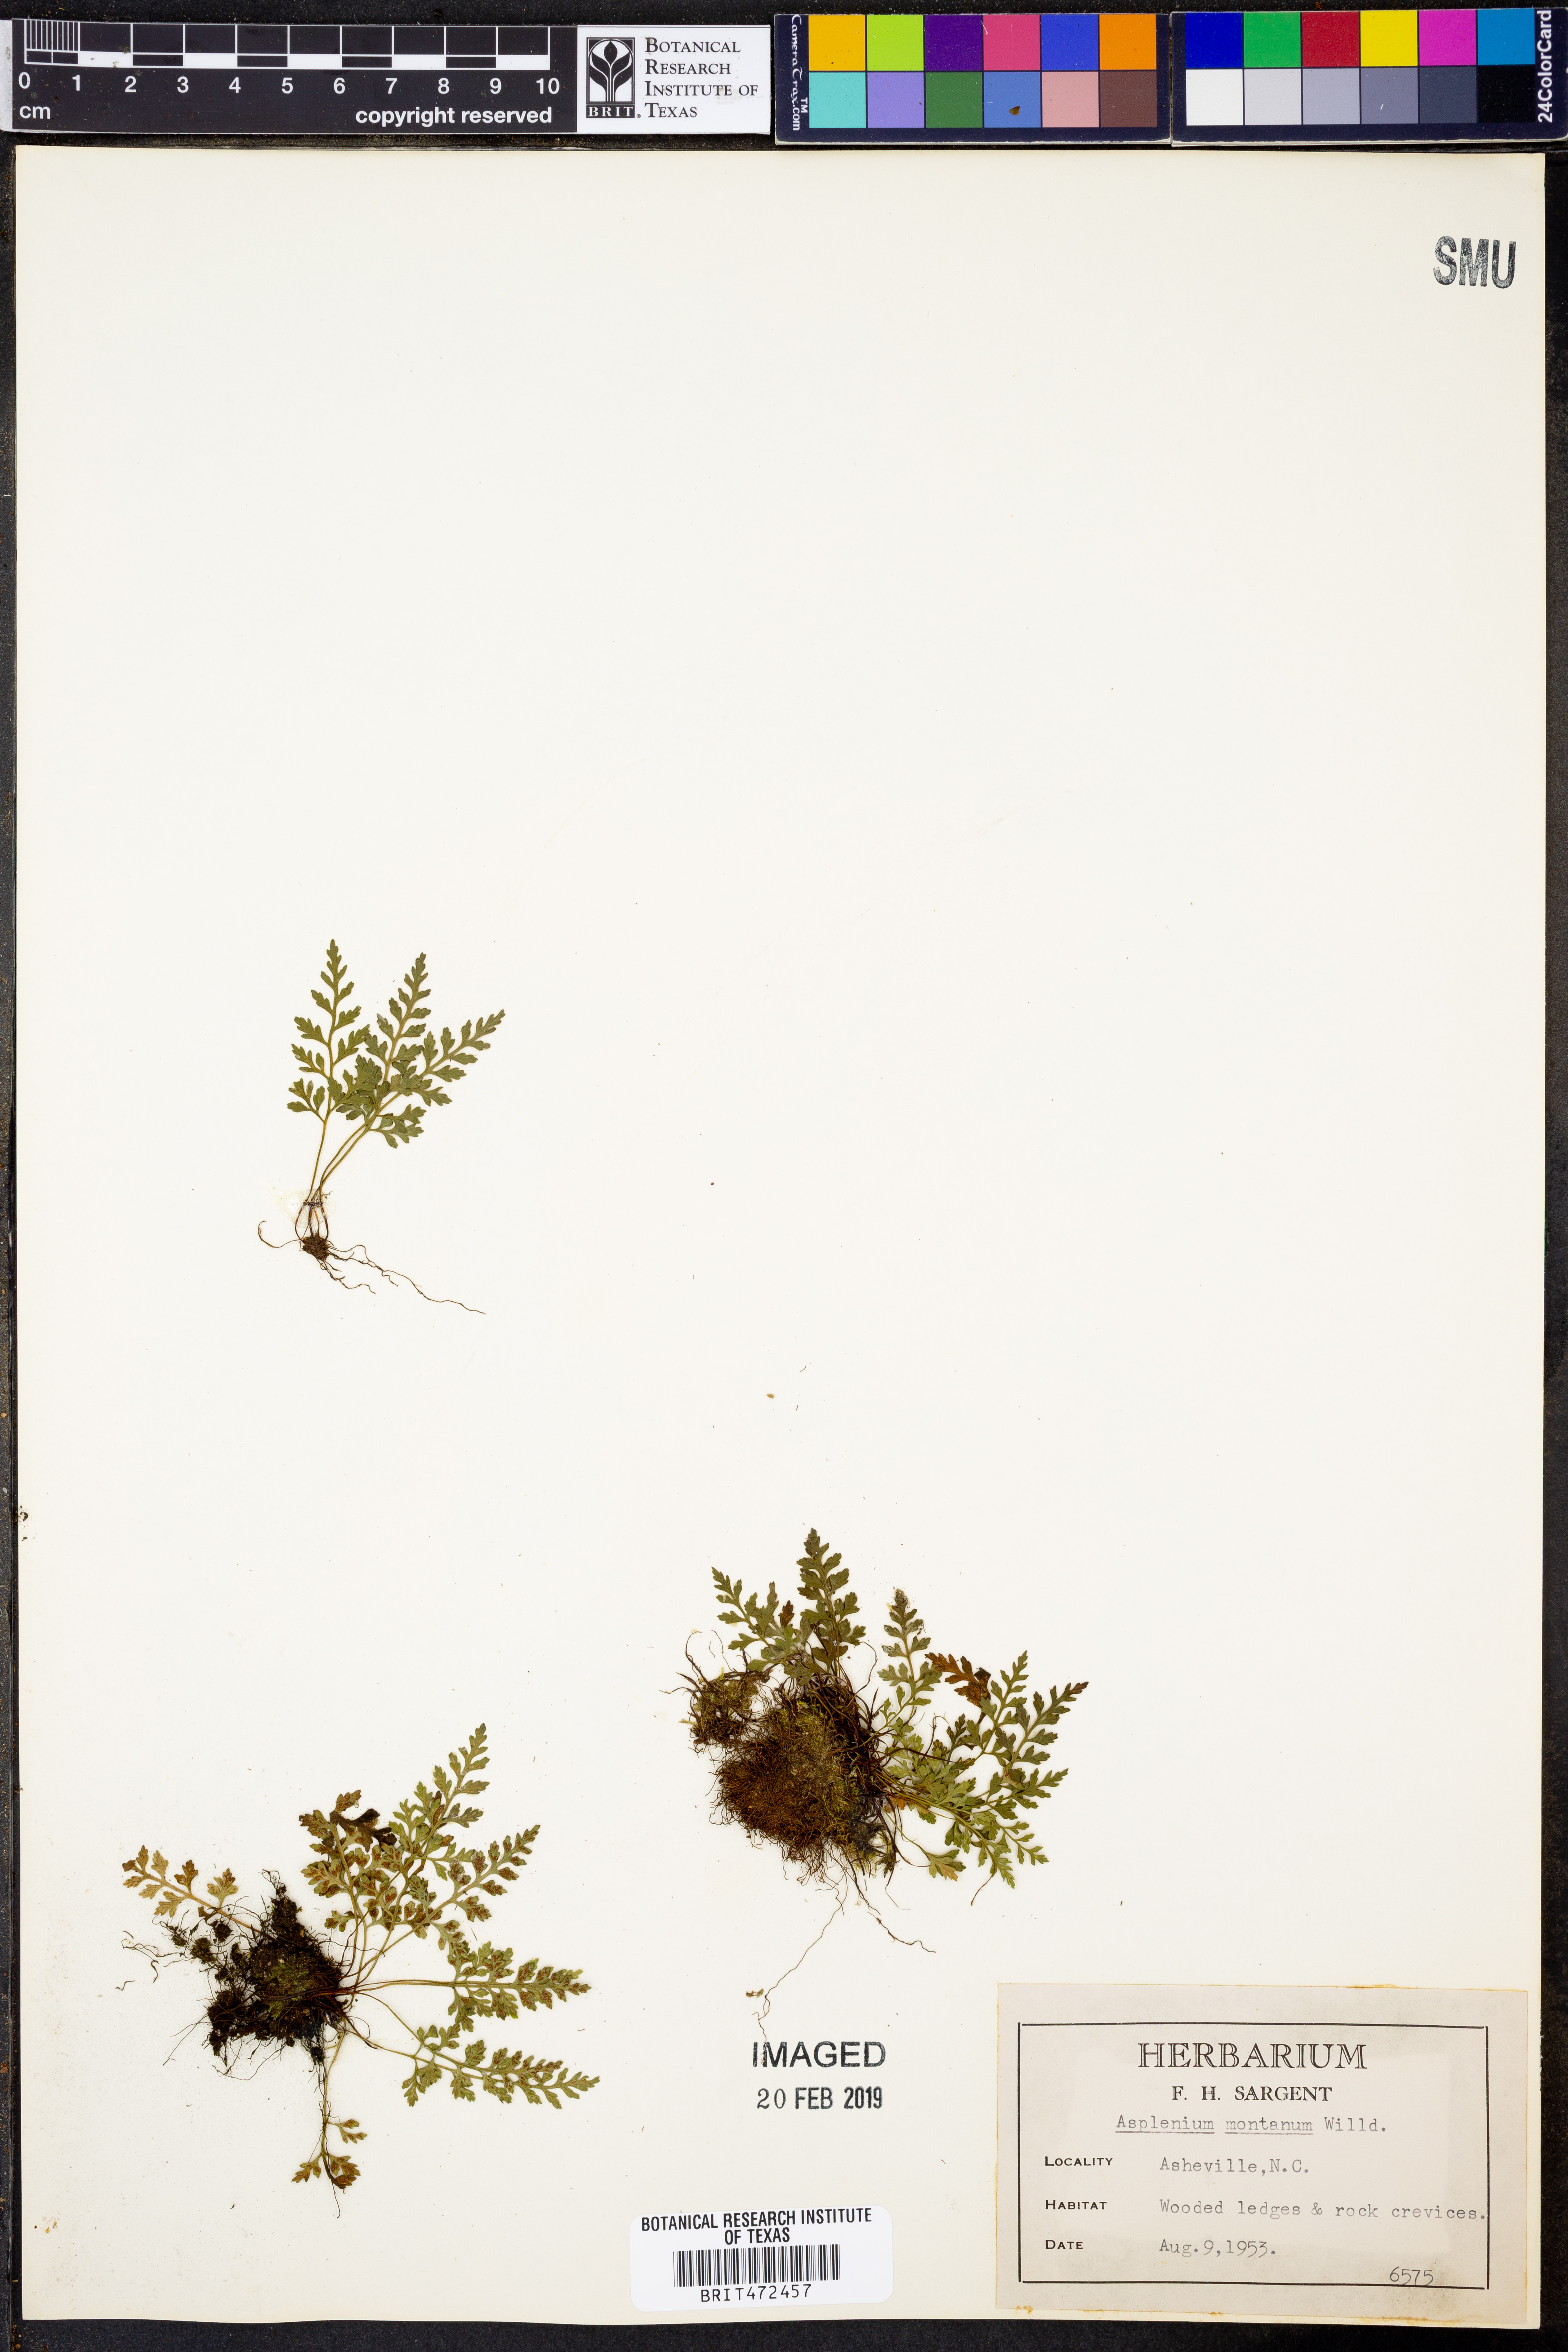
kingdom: Plantae
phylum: Tracheophyta
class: Polypodiopsida
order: Polypodiales
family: Aspleniaceae
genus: Asplenium
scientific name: Asplenium montanum
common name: Mountain spleenwort
